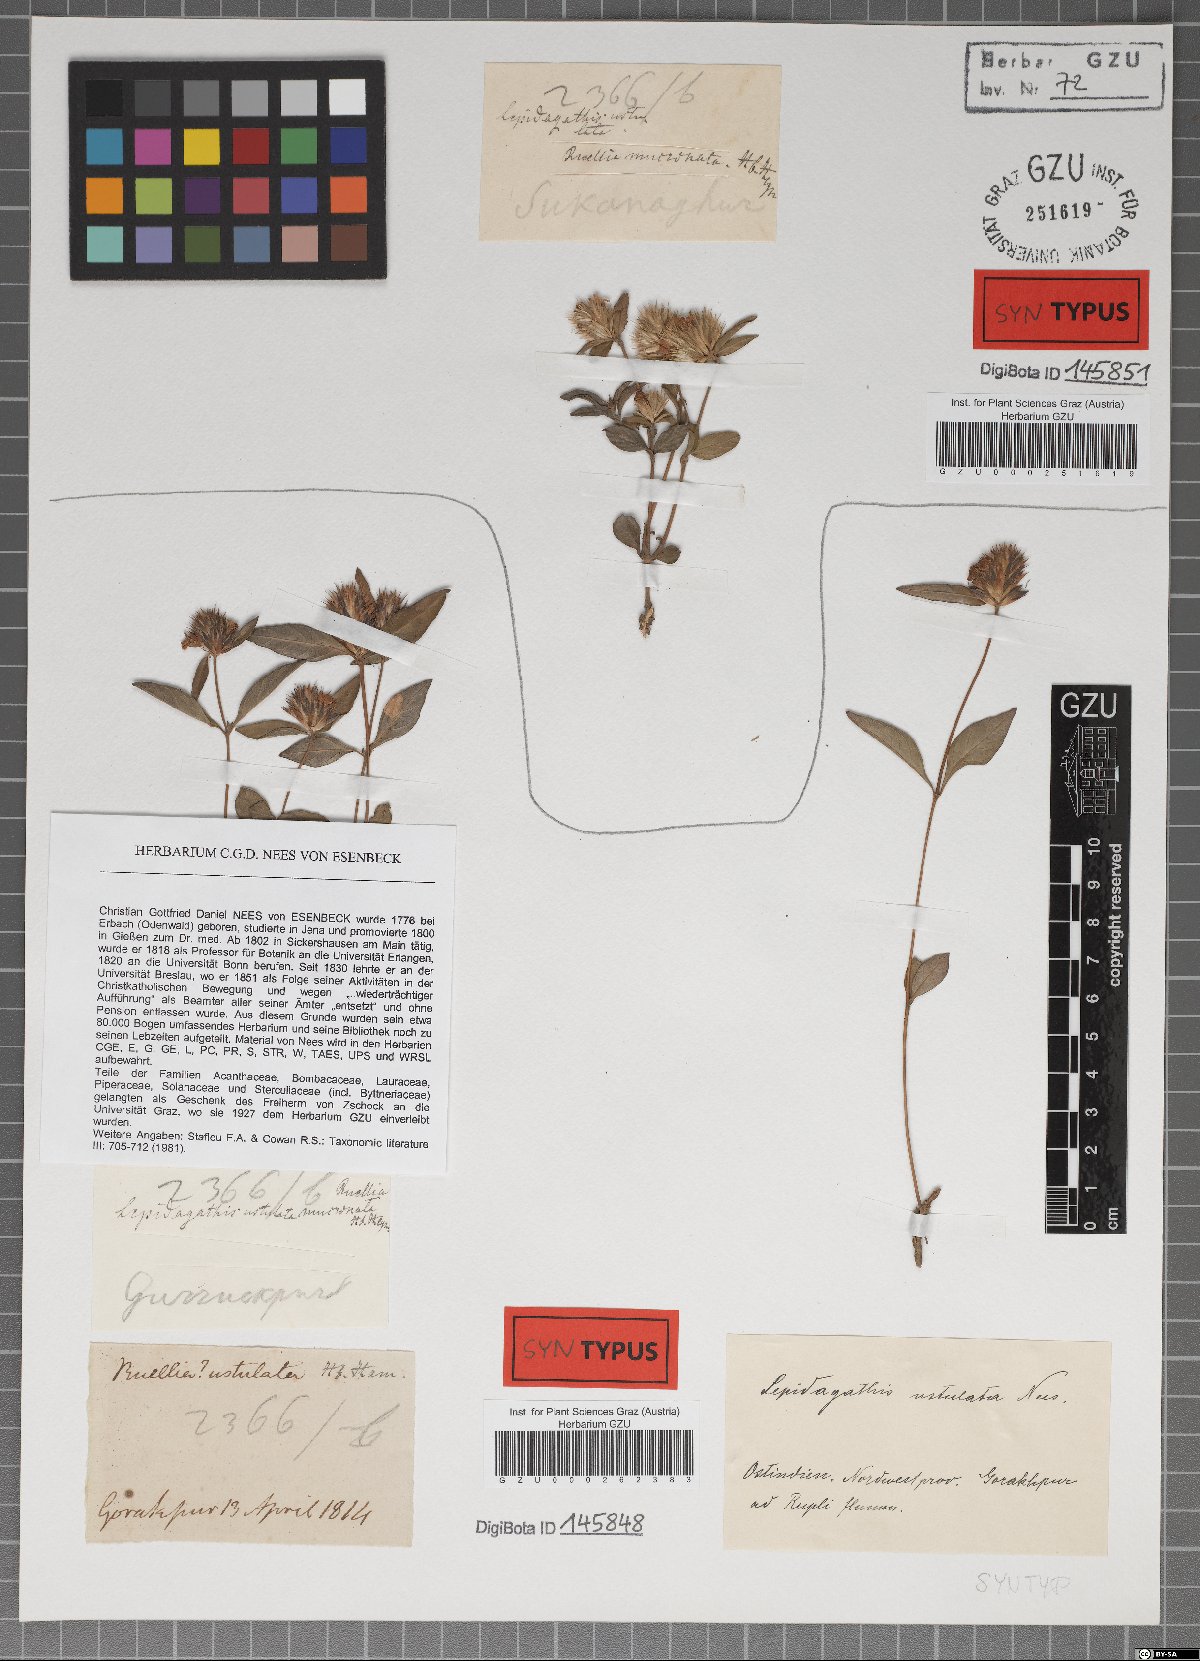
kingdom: Plantae
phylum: Tracheophyta
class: Magnoliopsida
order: Lamiales
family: Acanthaceae
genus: Lepidagathis
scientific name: Lepidagathis incurva
